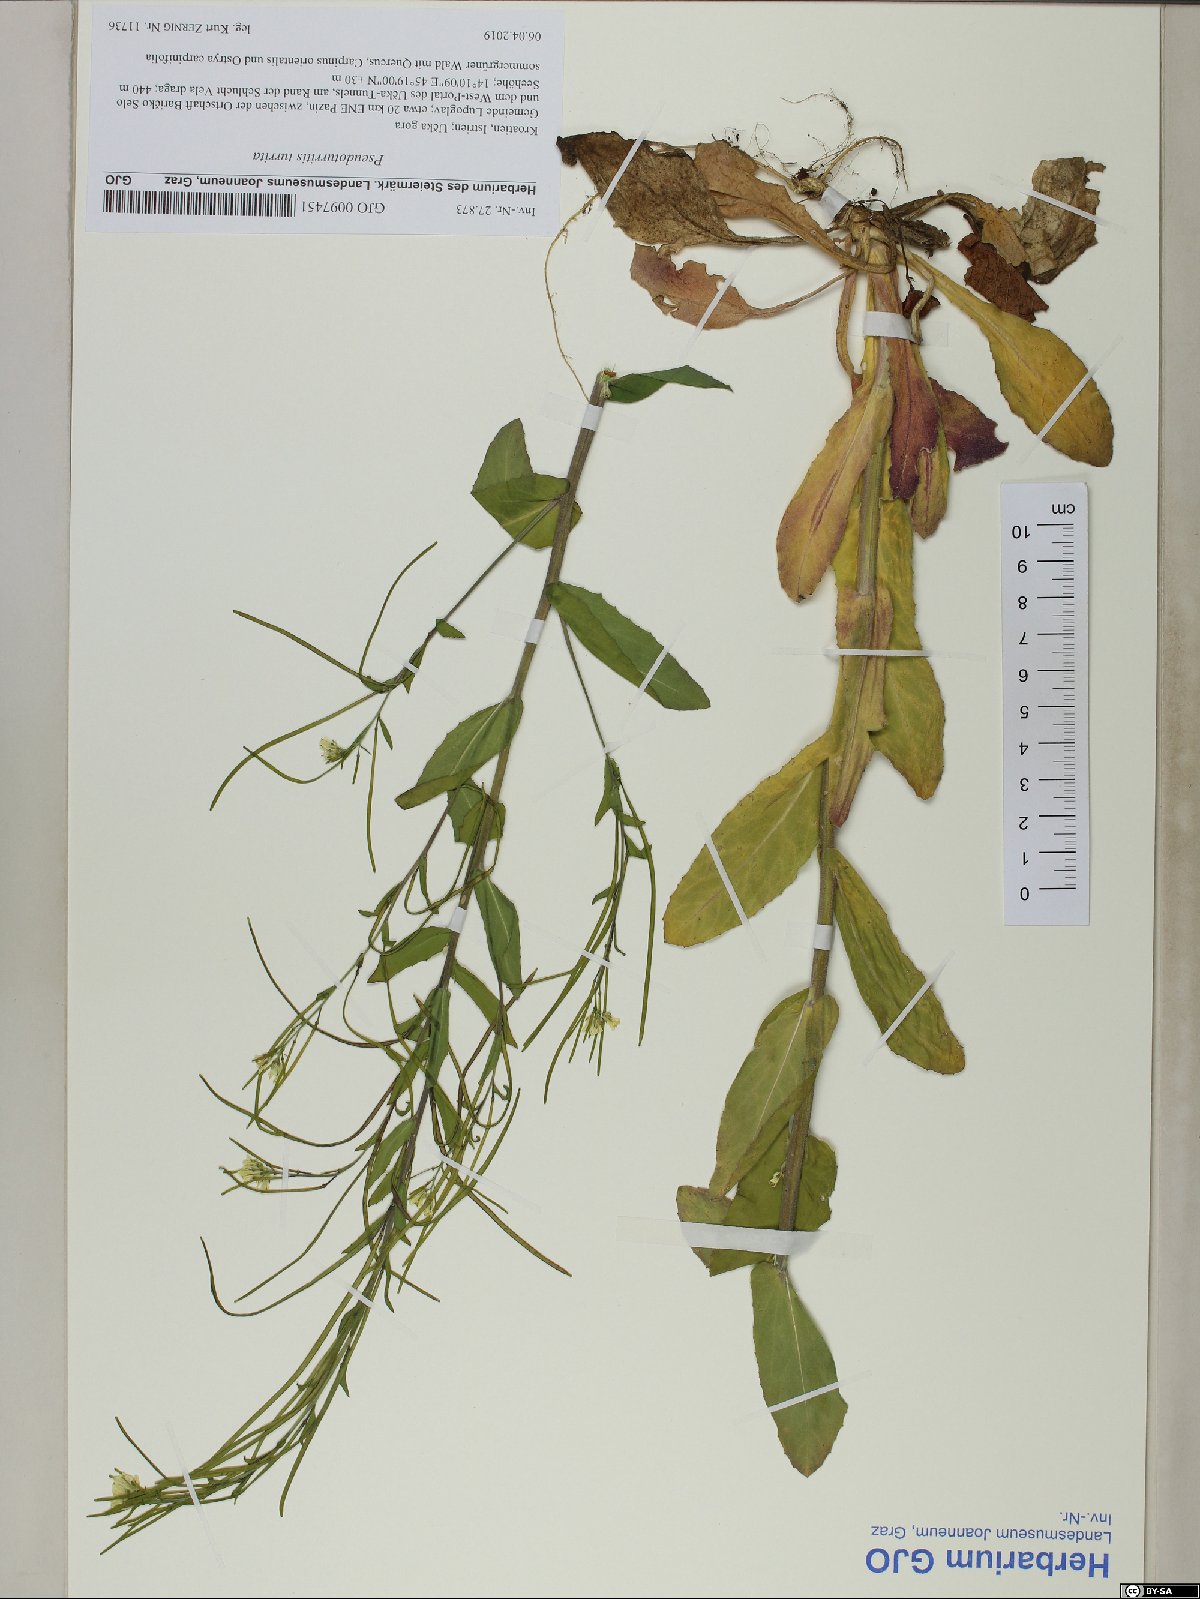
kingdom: Plantae
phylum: Tracheophyta
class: Magnoliopsida
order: Brassicales
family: Brassicaceae
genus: Pseudoturritis
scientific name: Pseudoturritis turrita
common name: Tower cress
